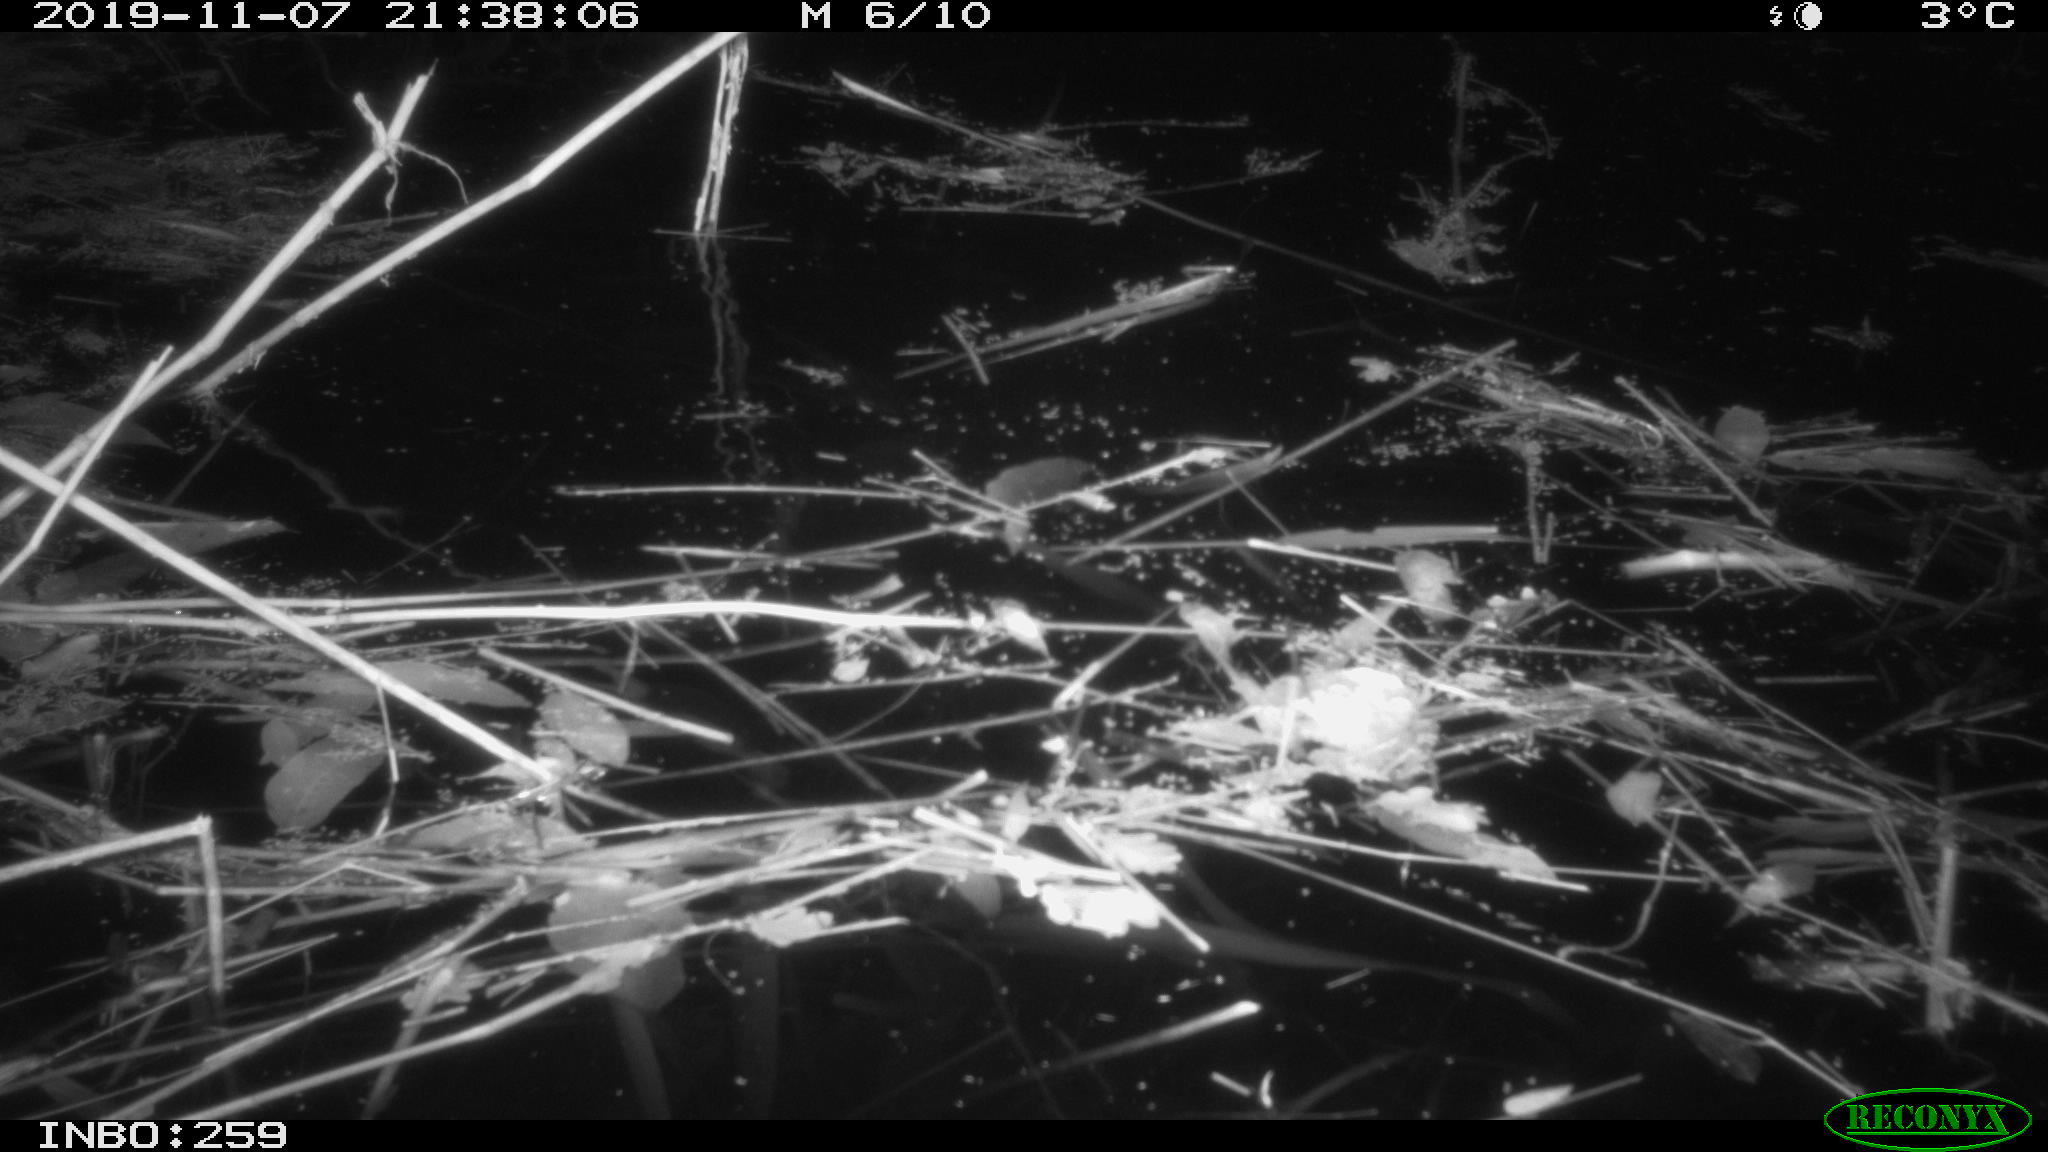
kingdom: Animalia
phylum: Chordata
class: Mammalia
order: Rodentia
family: Muridae
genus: Rattus
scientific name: Rattus norvegicus
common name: Brown rat
